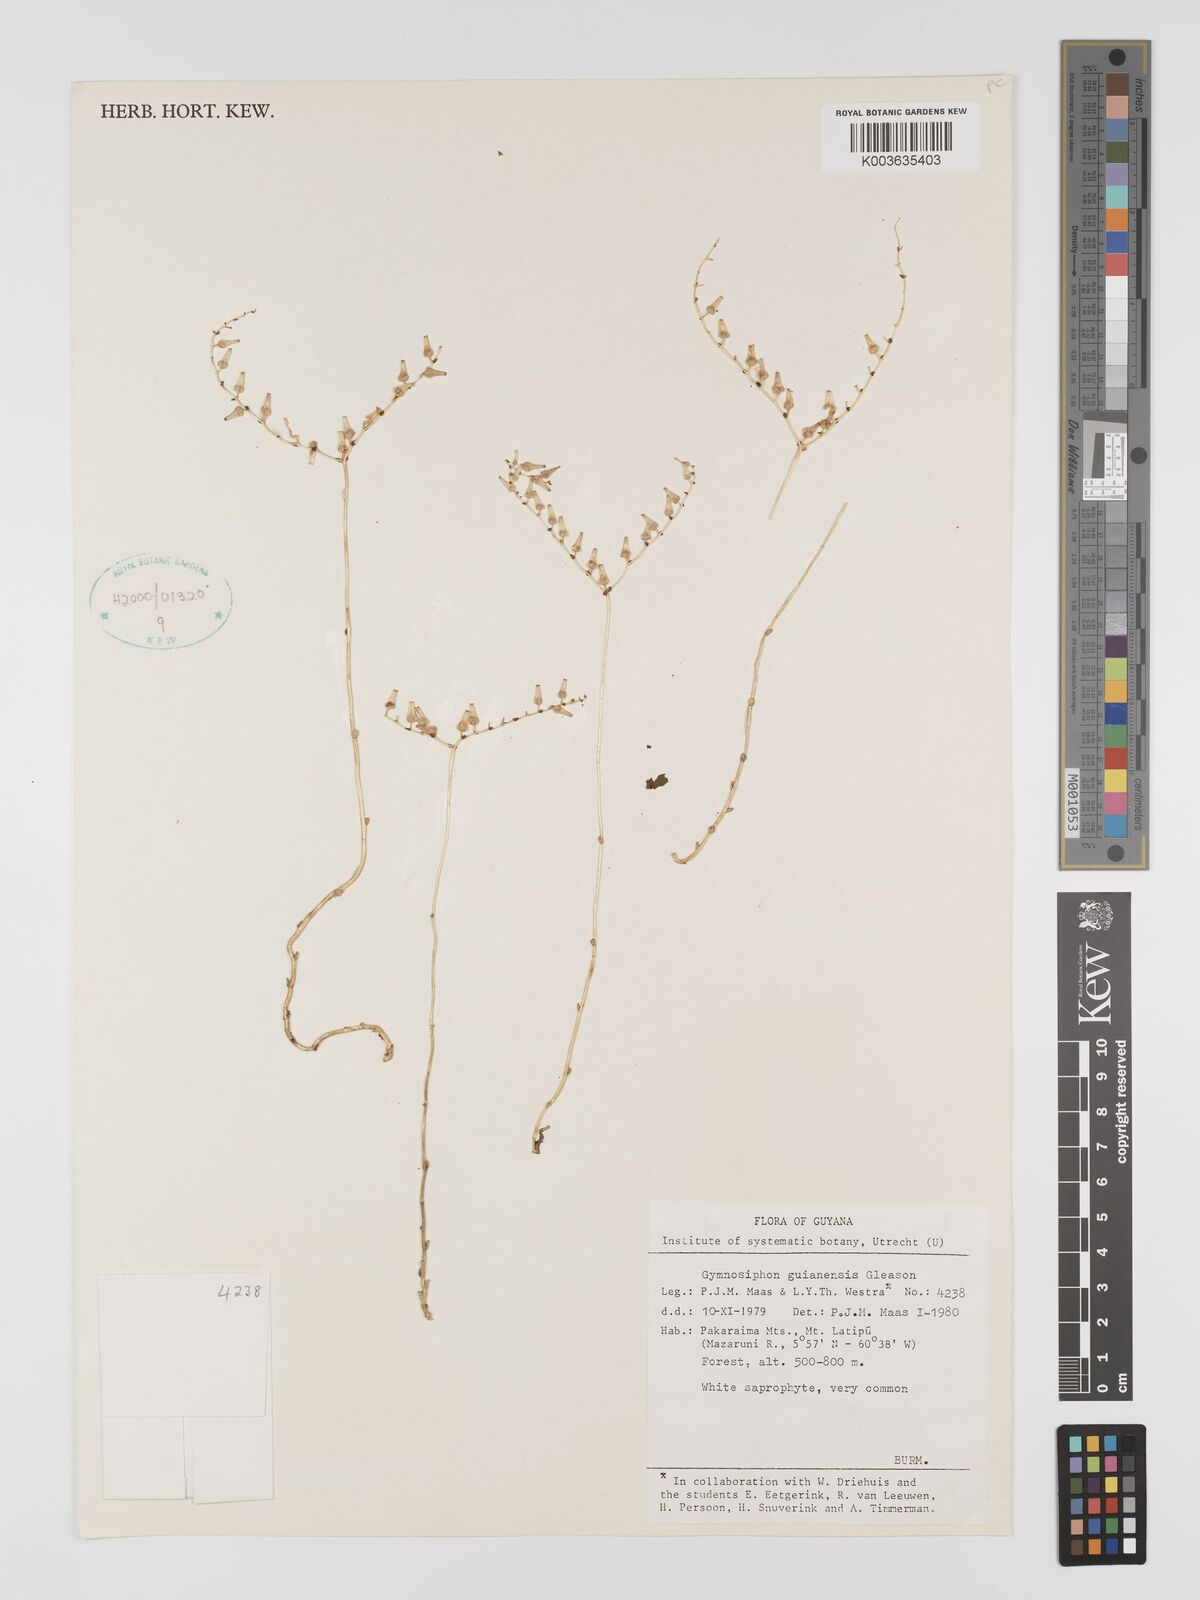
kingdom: Plantae
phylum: Tracheophyta
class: Liliopsida
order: Dioscoreales
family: Burmanniaceae
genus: Gymnosiphon
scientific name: Gymnosiphon guianensis
